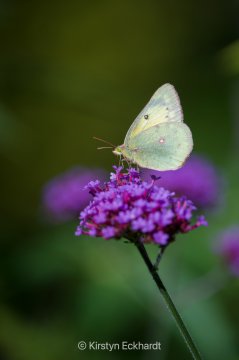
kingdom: Animalia
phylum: Arthropoda
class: Insecta
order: Lepidoptera
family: Pieridae
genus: Colias
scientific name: Colias philodice
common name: Clouded Sulphur
